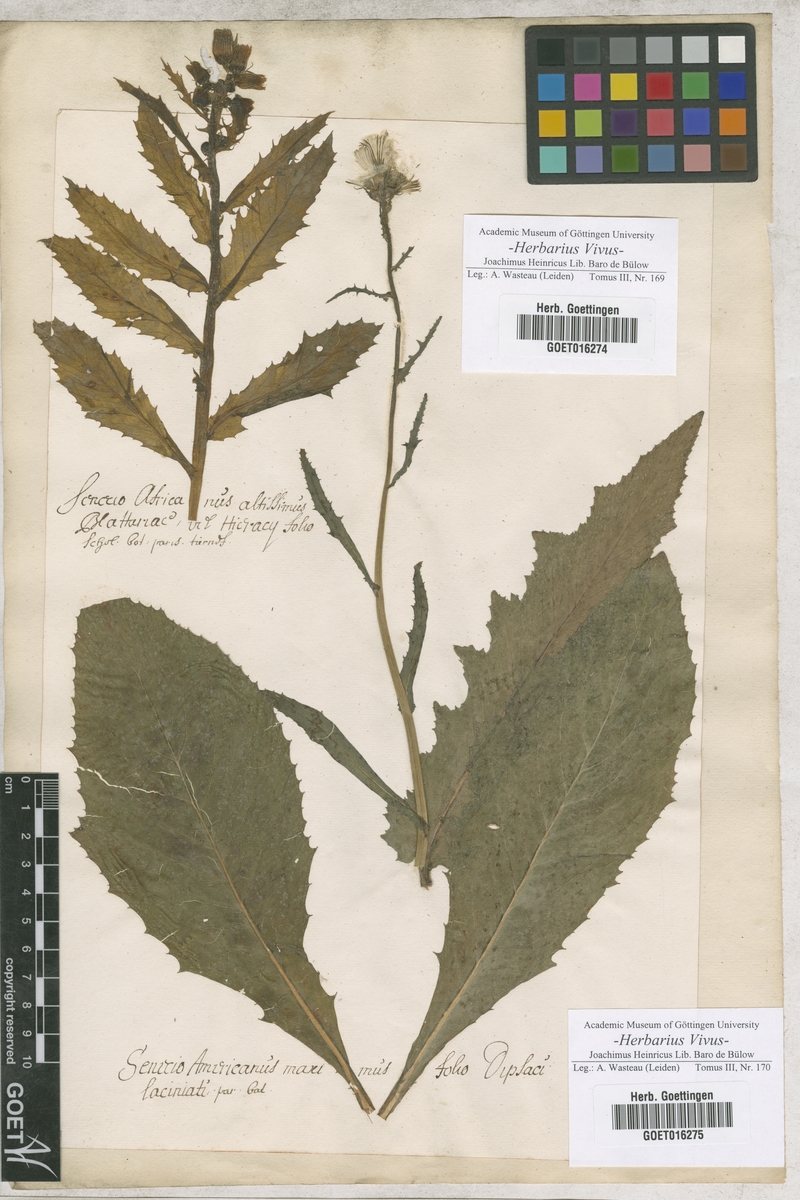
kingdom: Plantae
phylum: Tracheophyta
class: Magnoliopsida
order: Asterales
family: Asteraceae
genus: Erechtites
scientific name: Erechtites hieraciifolius
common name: American burnweed
